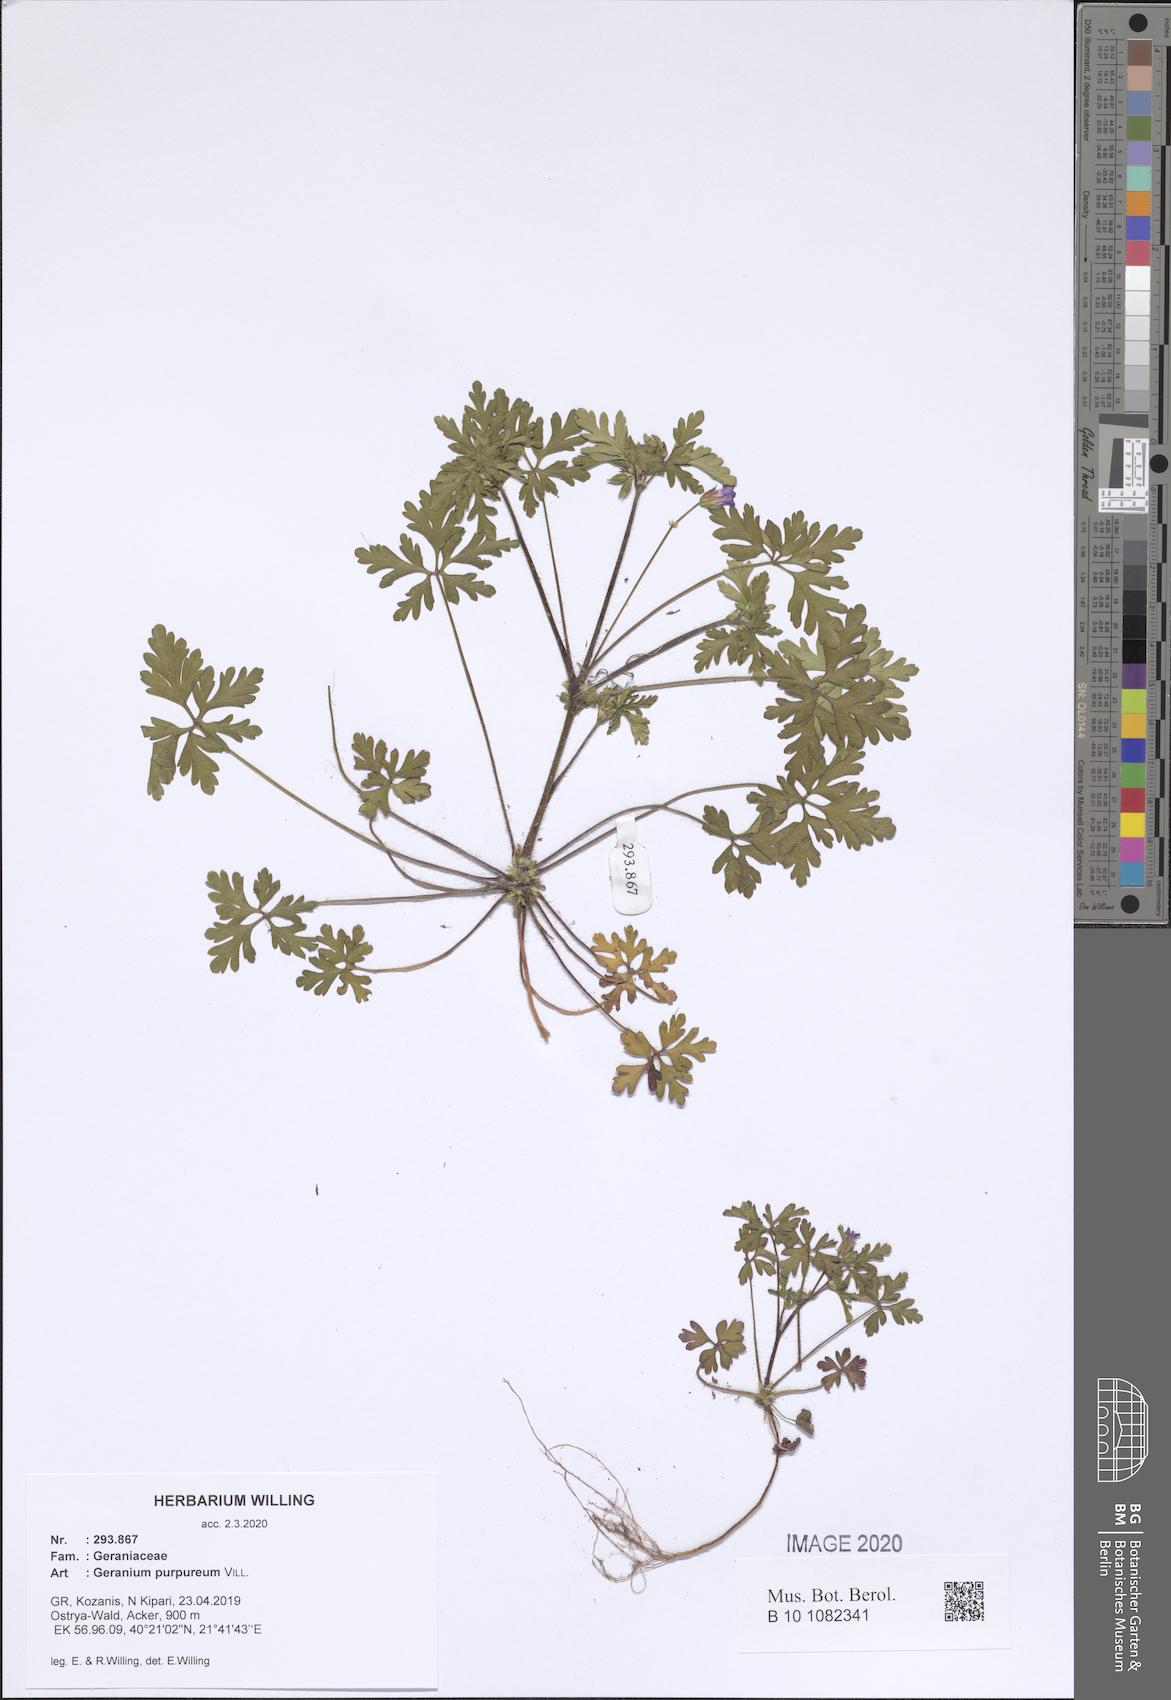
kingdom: Plantae
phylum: Tracheophyta
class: Magnoliopsida
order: Geraniales
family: Geraniaceae
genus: Geranium
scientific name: Geranium purpureum
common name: Little-robin
